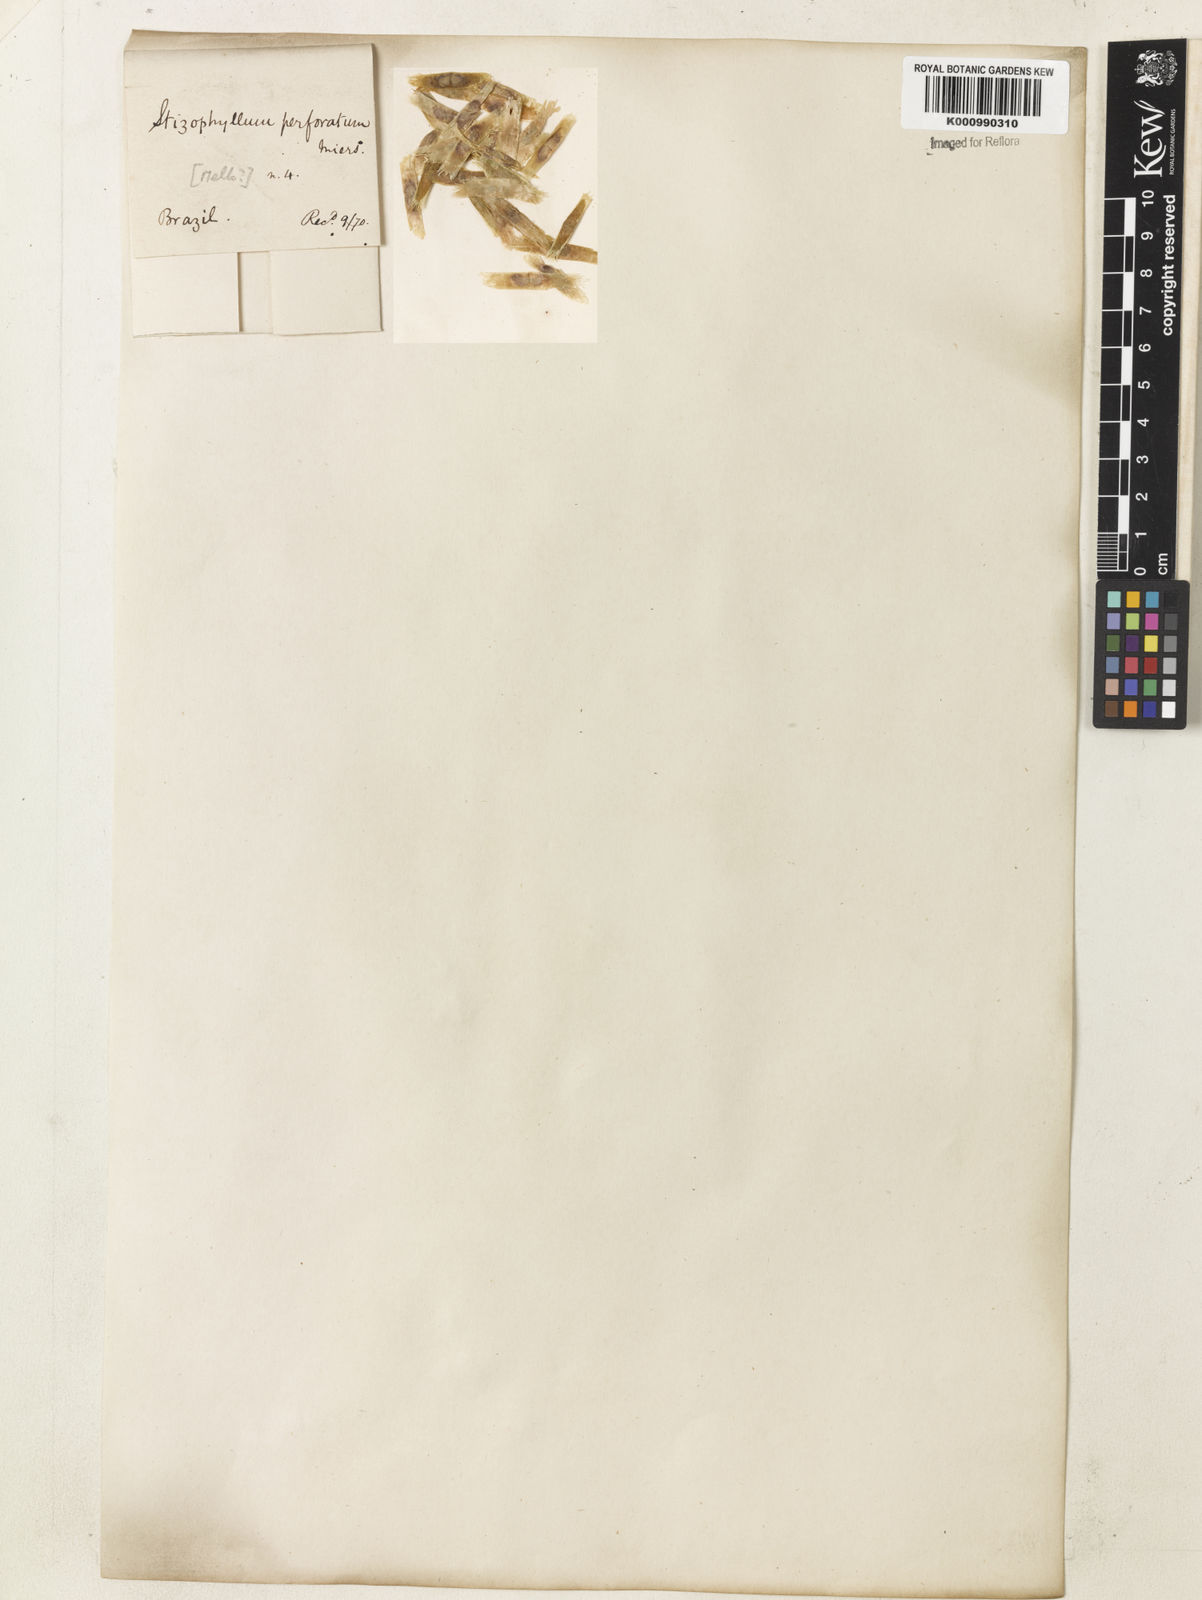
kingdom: Plantae
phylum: Tracheophyta
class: Magnoliopsida
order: Lamiales
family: Bignoniaceae
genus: Stizophyllum
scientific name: Stizophyllum perforatum
